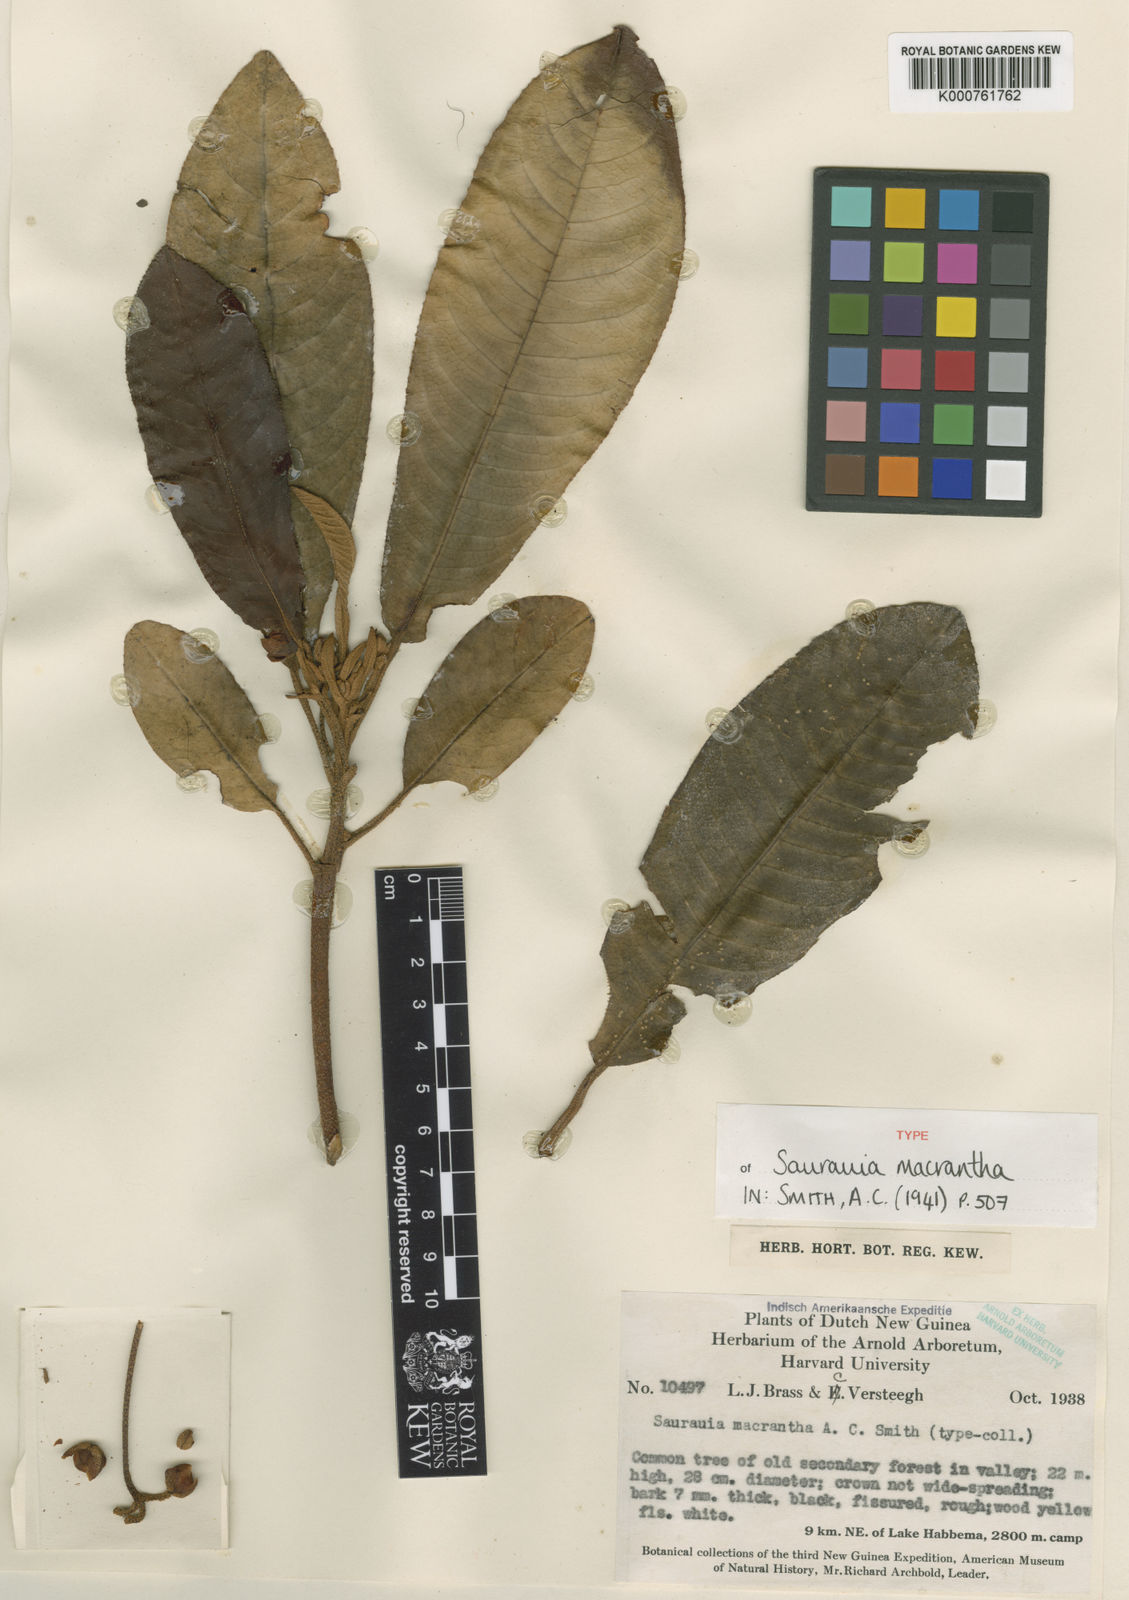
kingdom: Plantae
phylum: Tracheophyta
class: Magnoliopsida
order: Ericales
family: Actinidiaceae
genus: Saurauia
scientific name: Saurauia macrantha
